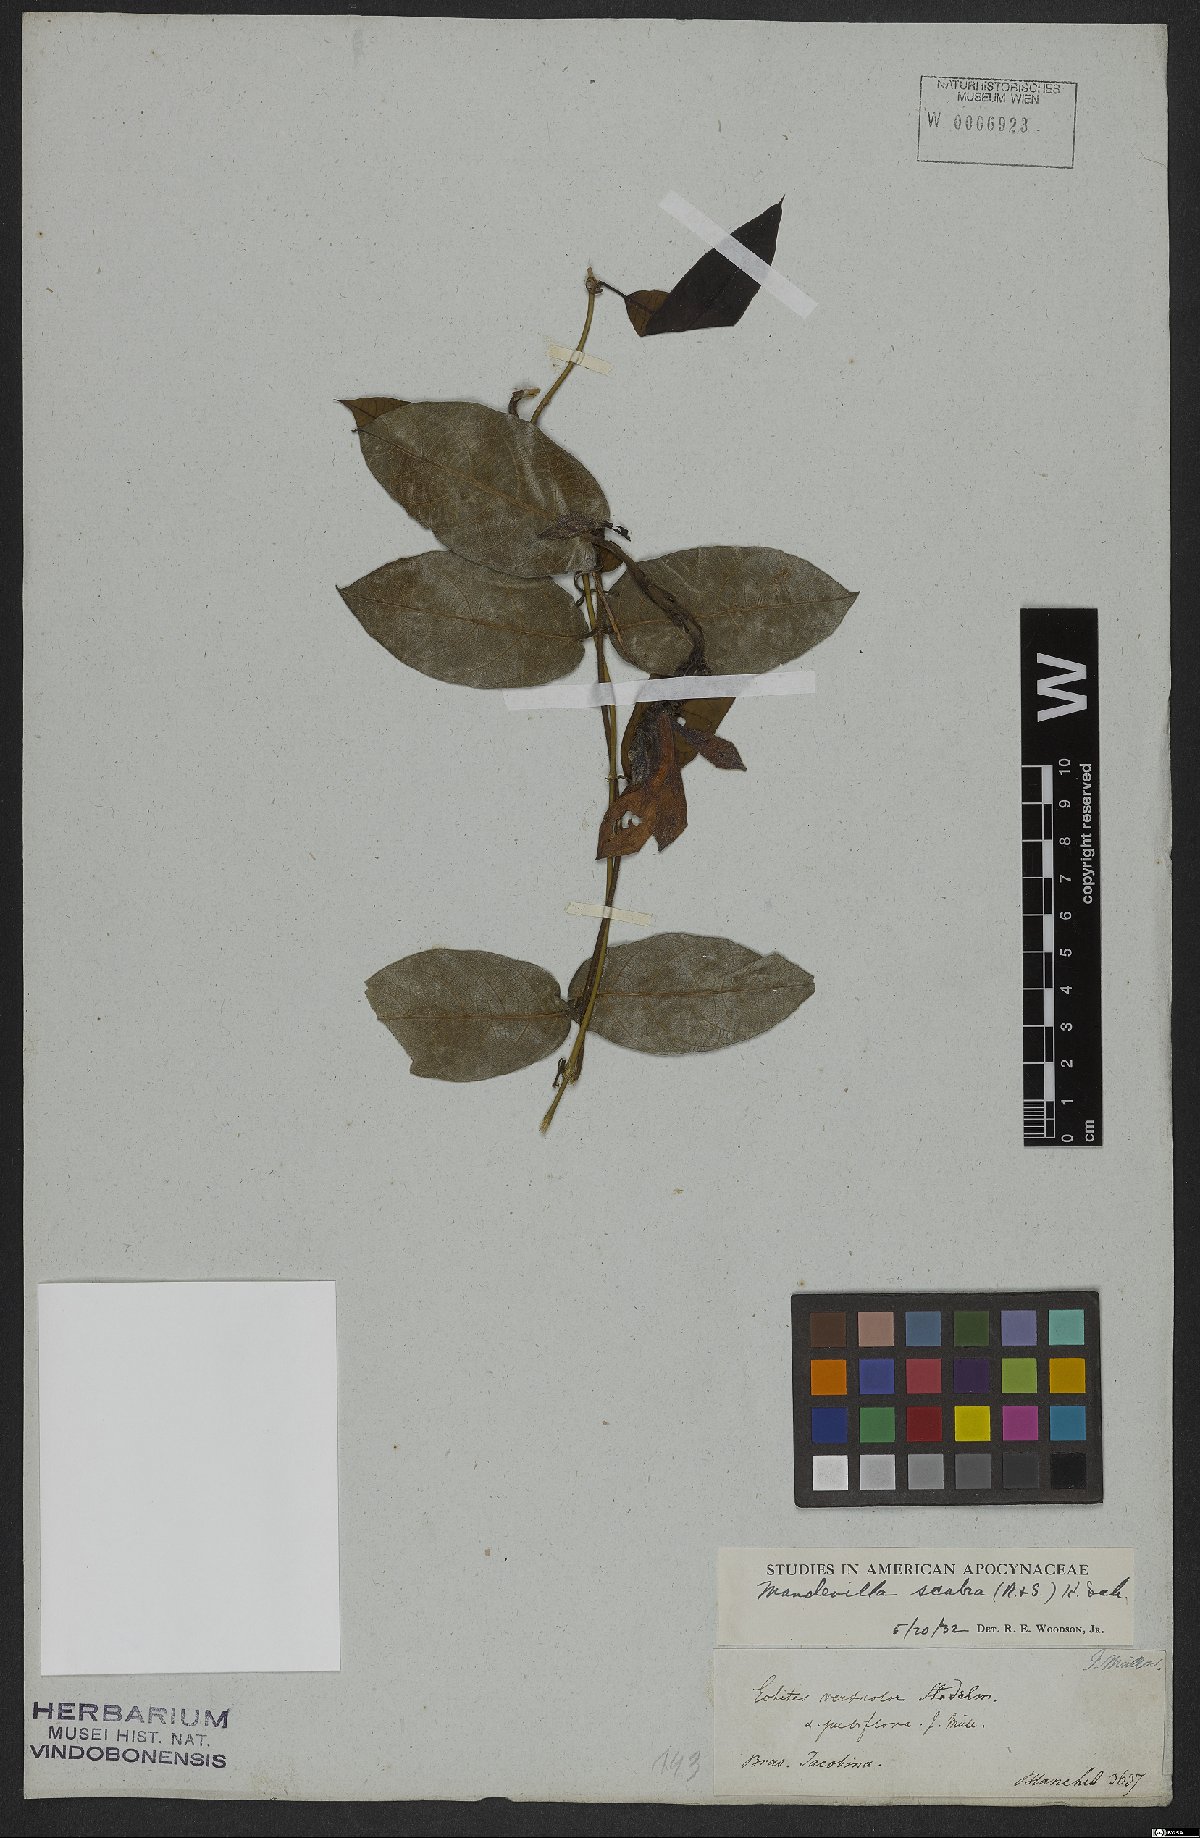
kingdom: Plantae
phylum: Tracheophyta
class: Magnoliopsida
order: Gentianales
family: Apocynaceae
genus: Mandevilla
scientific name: Mandevilla scabra
